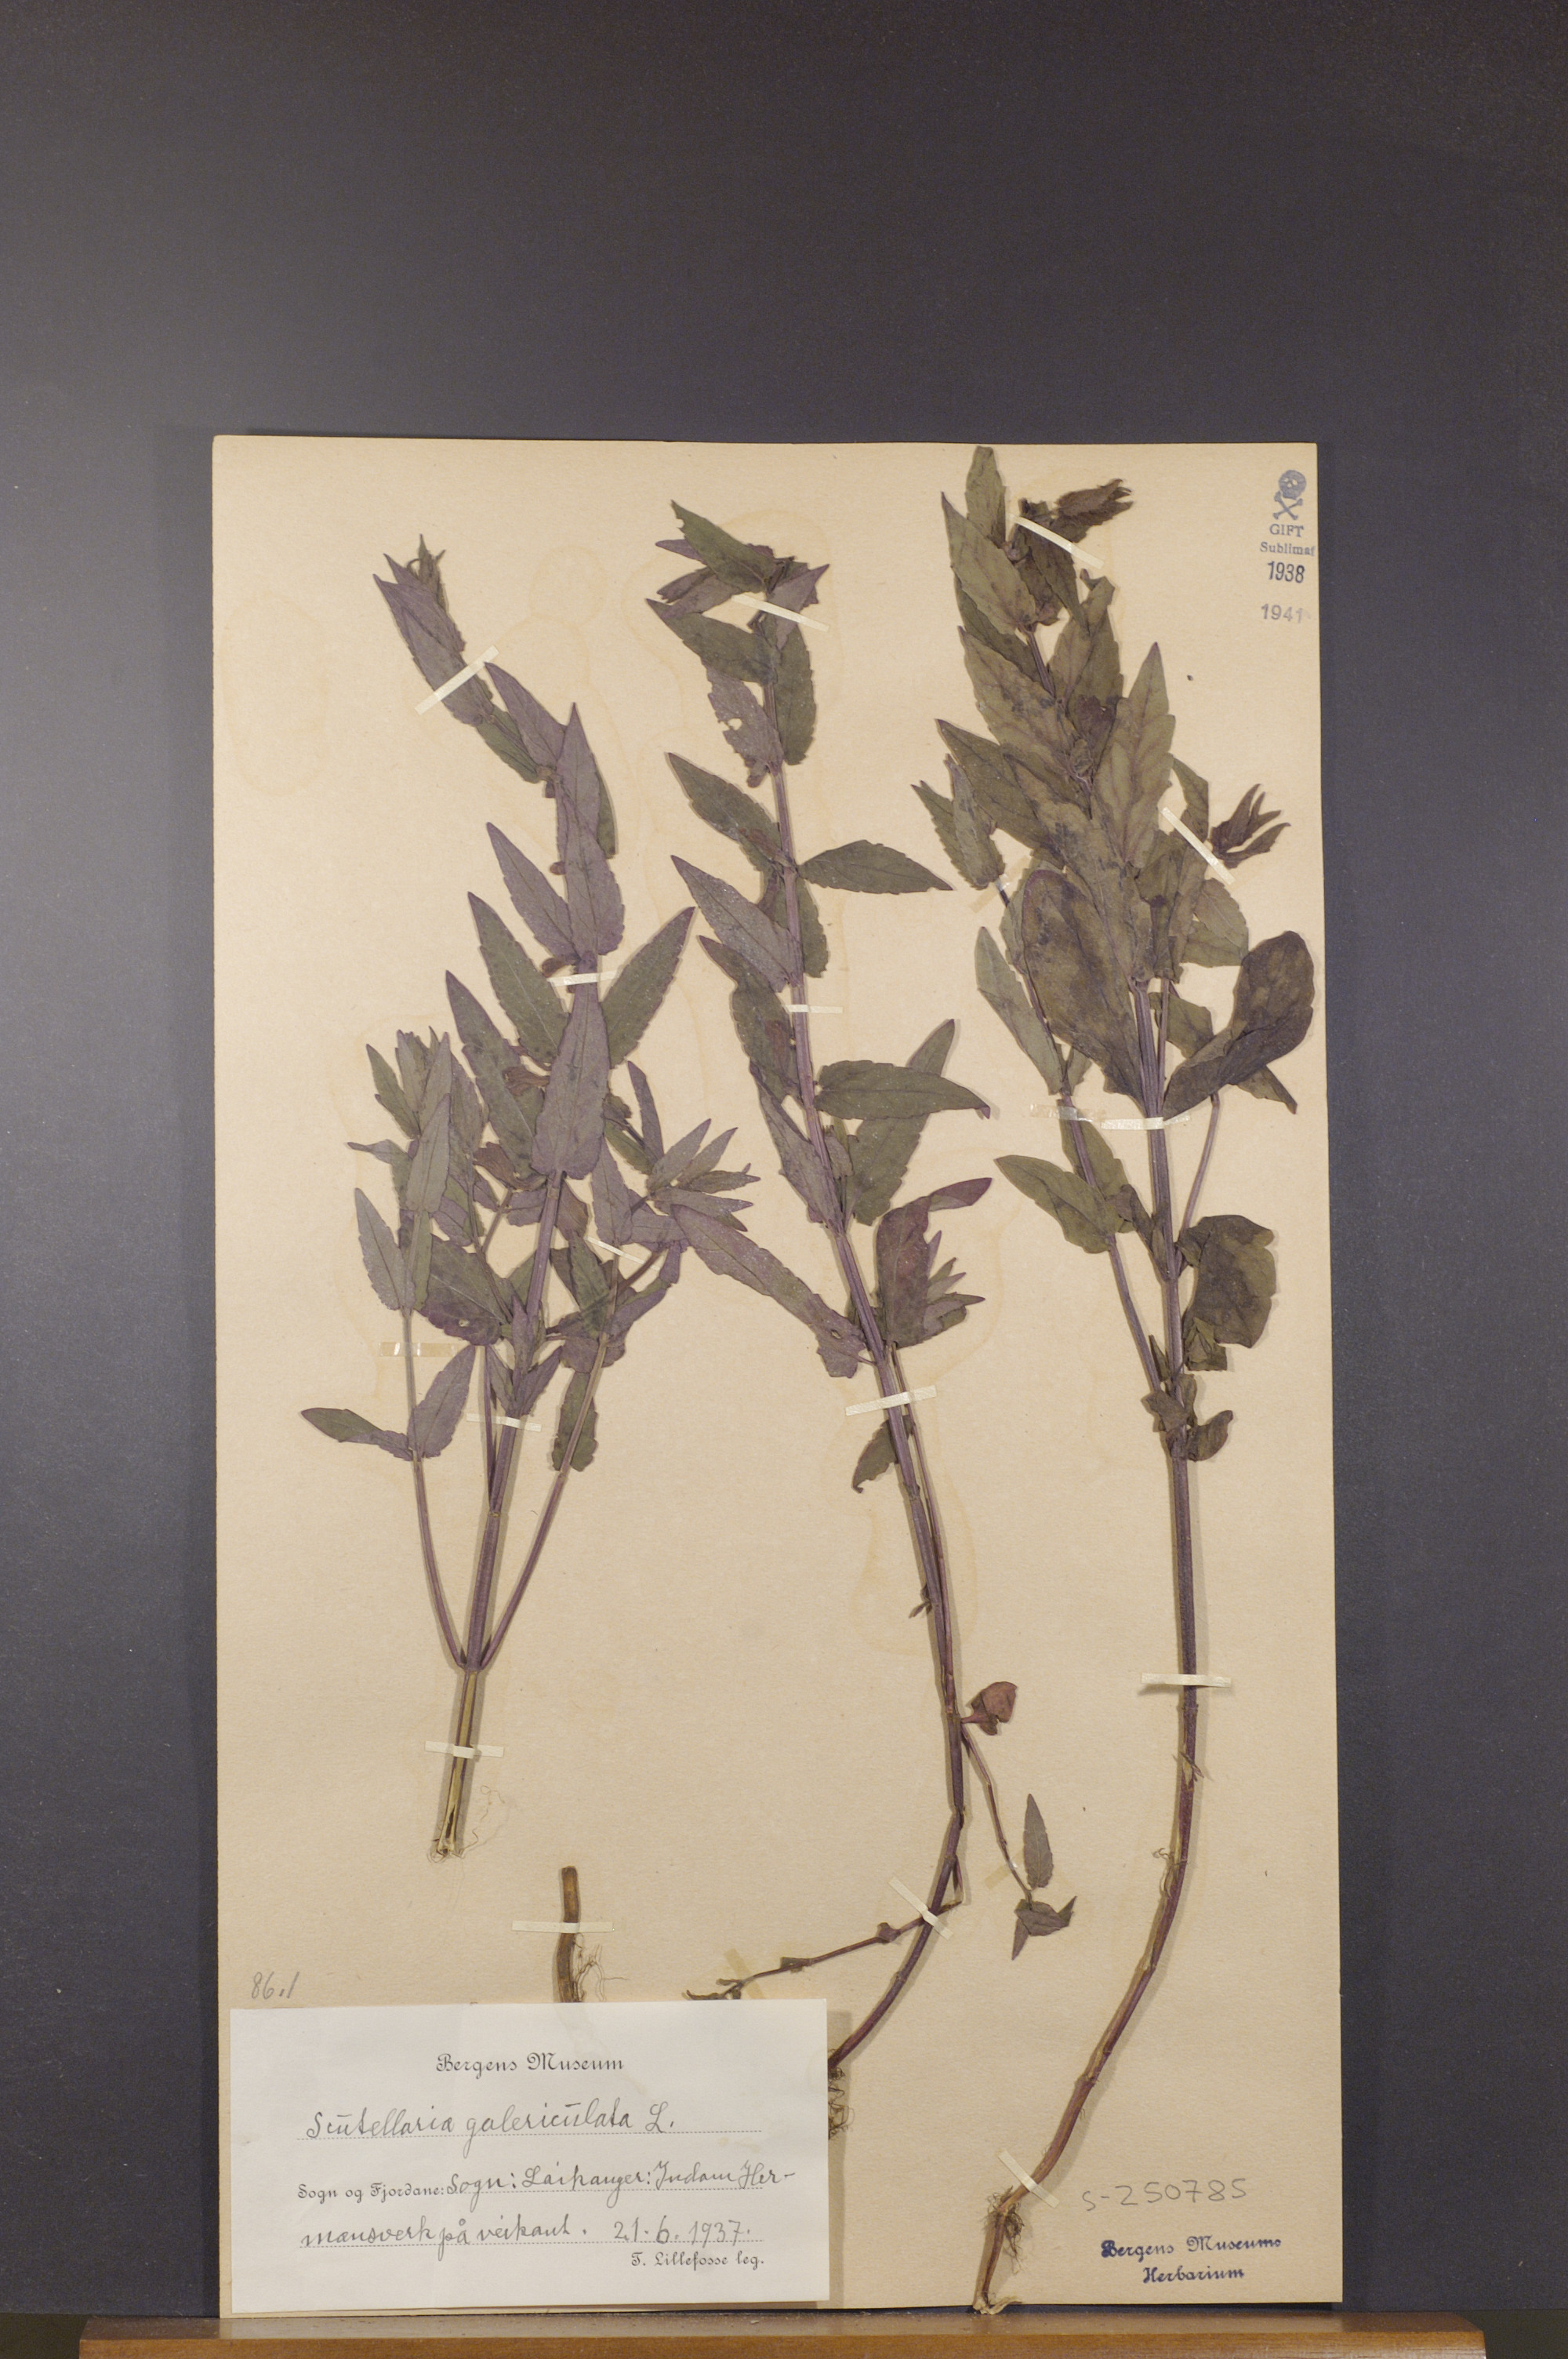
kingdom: Plantae
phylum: Tracheophyta
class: Magnoliopsida
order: Lamiales
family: Lamiaceae
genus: Scutellaria
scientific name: Scutellaria galericulata
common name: Skullcap
